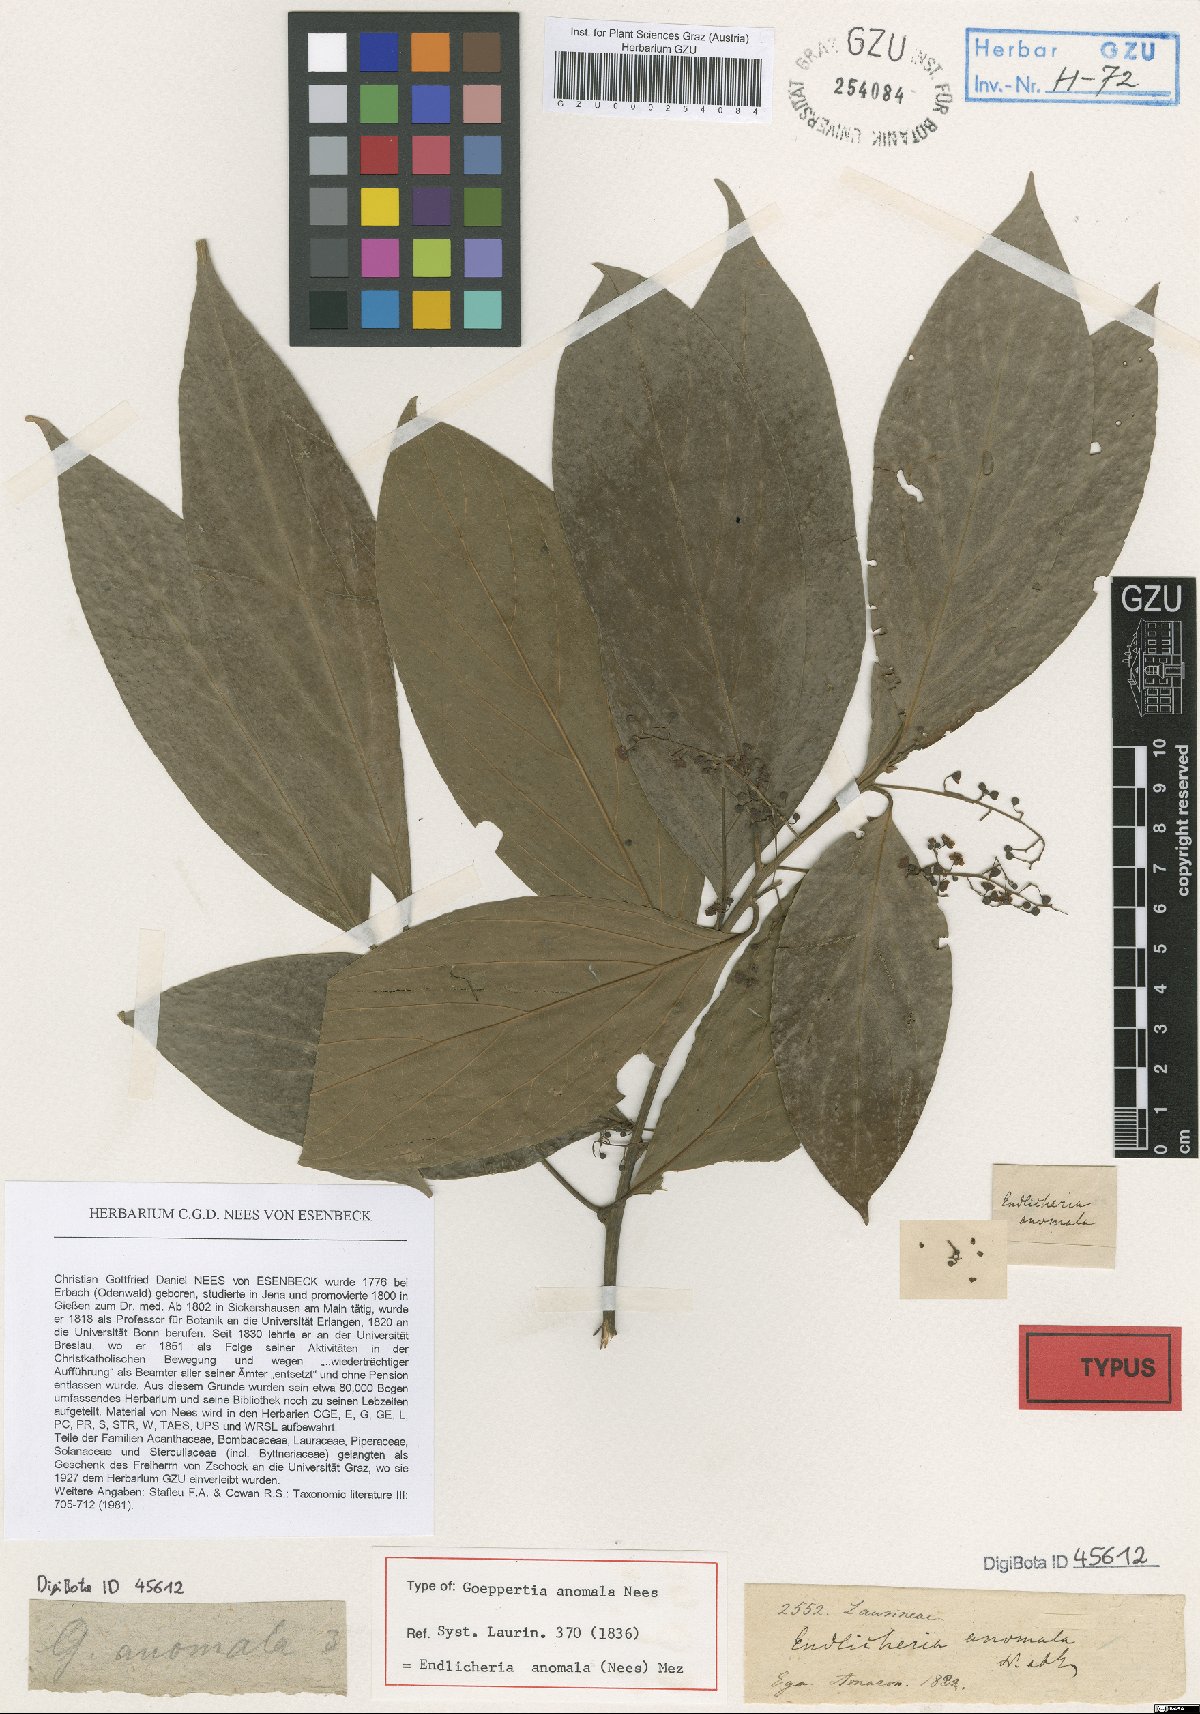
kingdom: Plantae
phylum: Tracheophyta
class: Magnoliopsida
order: Laurales
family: Lauraceae
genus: Endlicheria
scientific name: Endlicheria anomala
